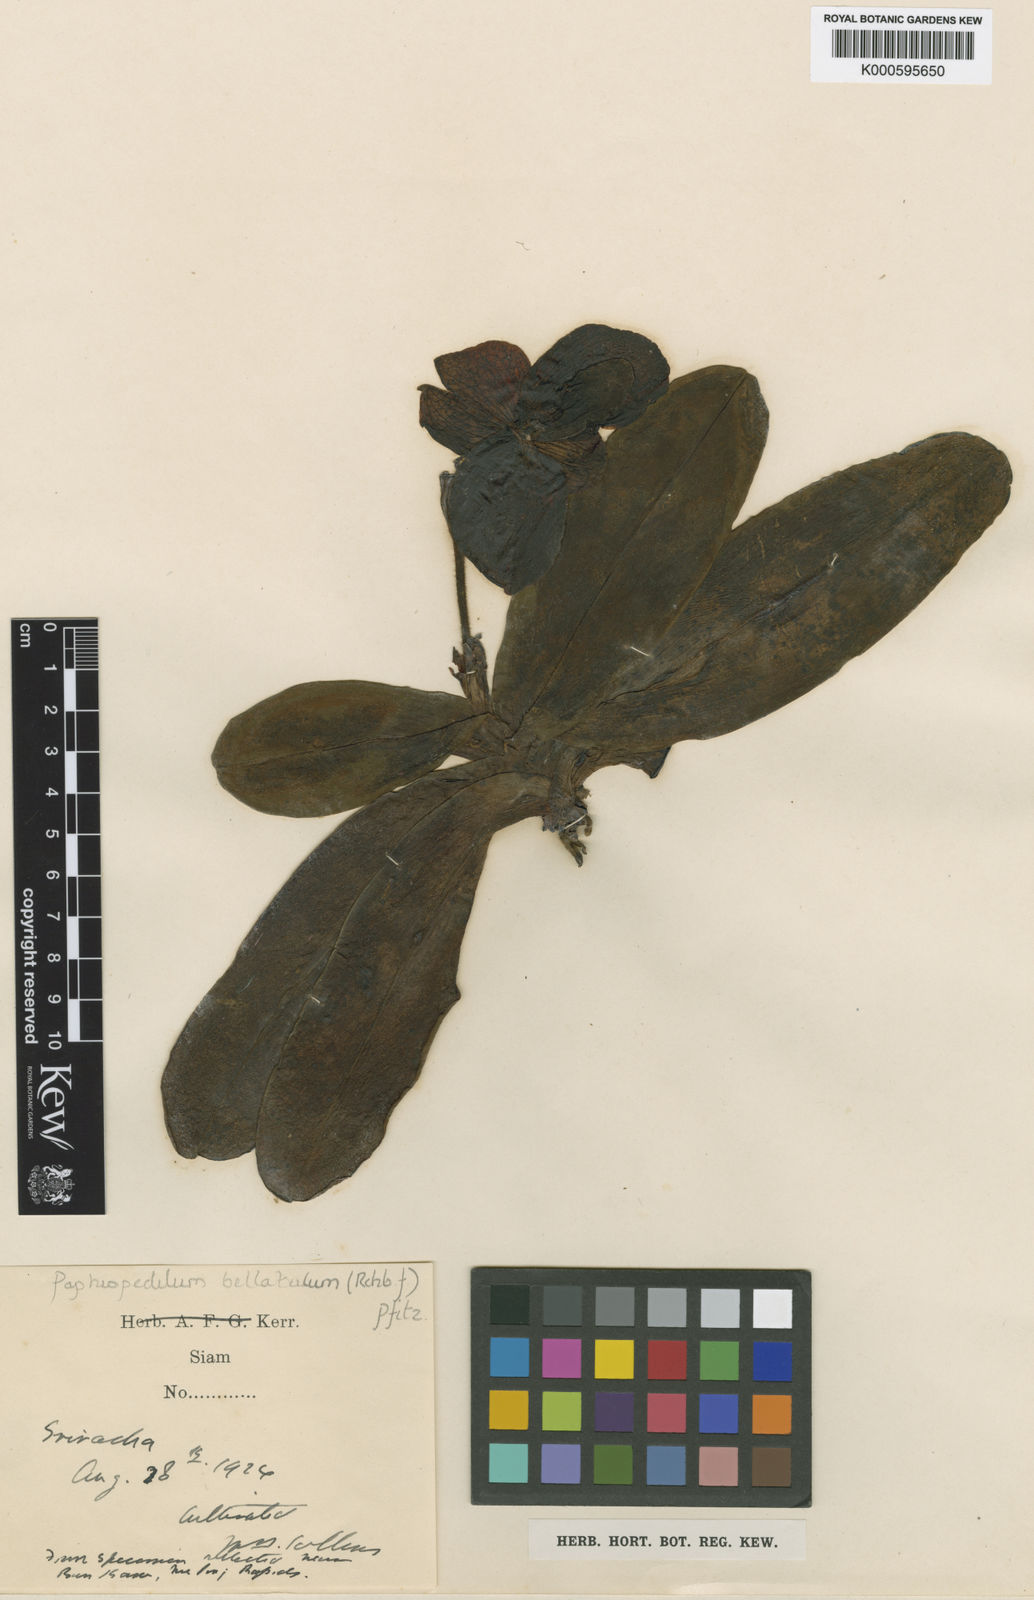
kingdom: Plantae
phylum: Tracheophyta
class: Liliopsida
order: Asparagales
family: Orchidaceae
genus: Paphiopedilum
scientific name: Paphiopedilum
